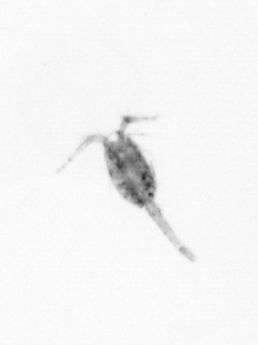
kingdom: Animalia
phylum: Arthropoda
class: Copepoda
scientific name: Copepoda
